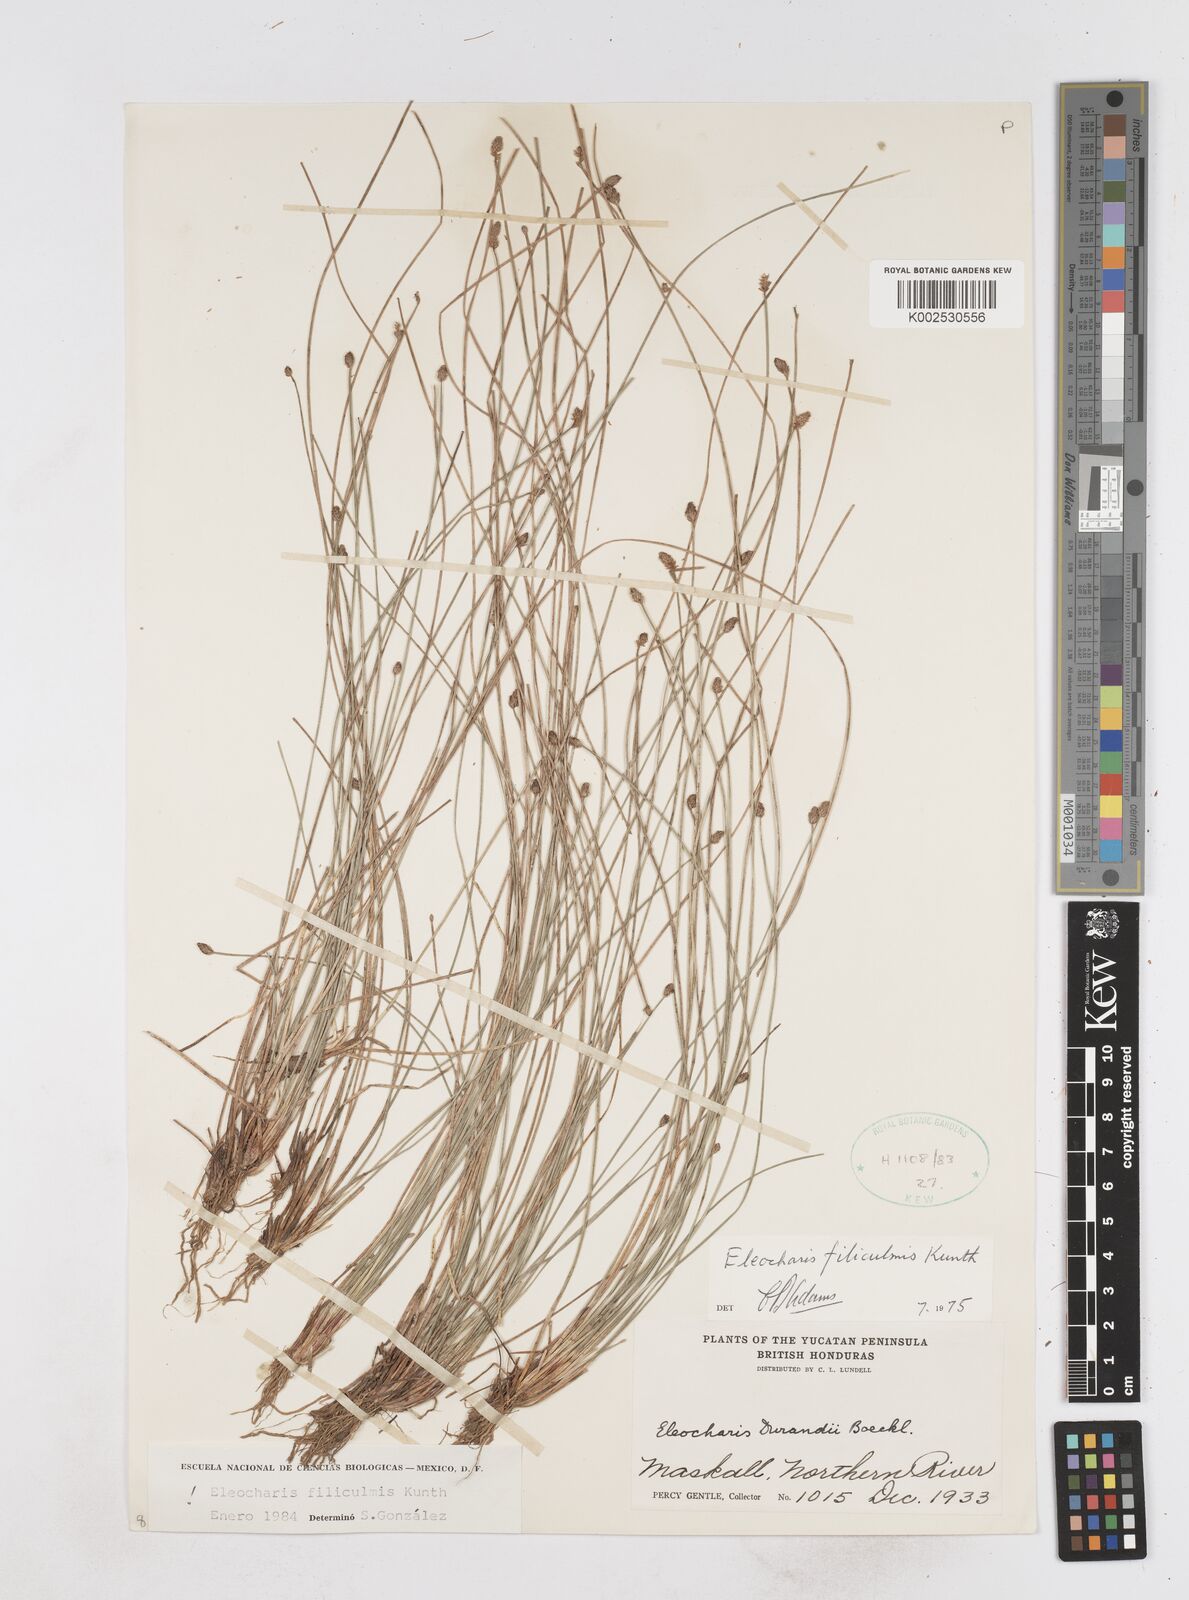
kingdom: Plantae
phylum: Tracheophyta
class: Liliopsida
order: Poales
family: Cyperaceae
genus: Eleocharis
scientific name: Eleocharis filiculmis
